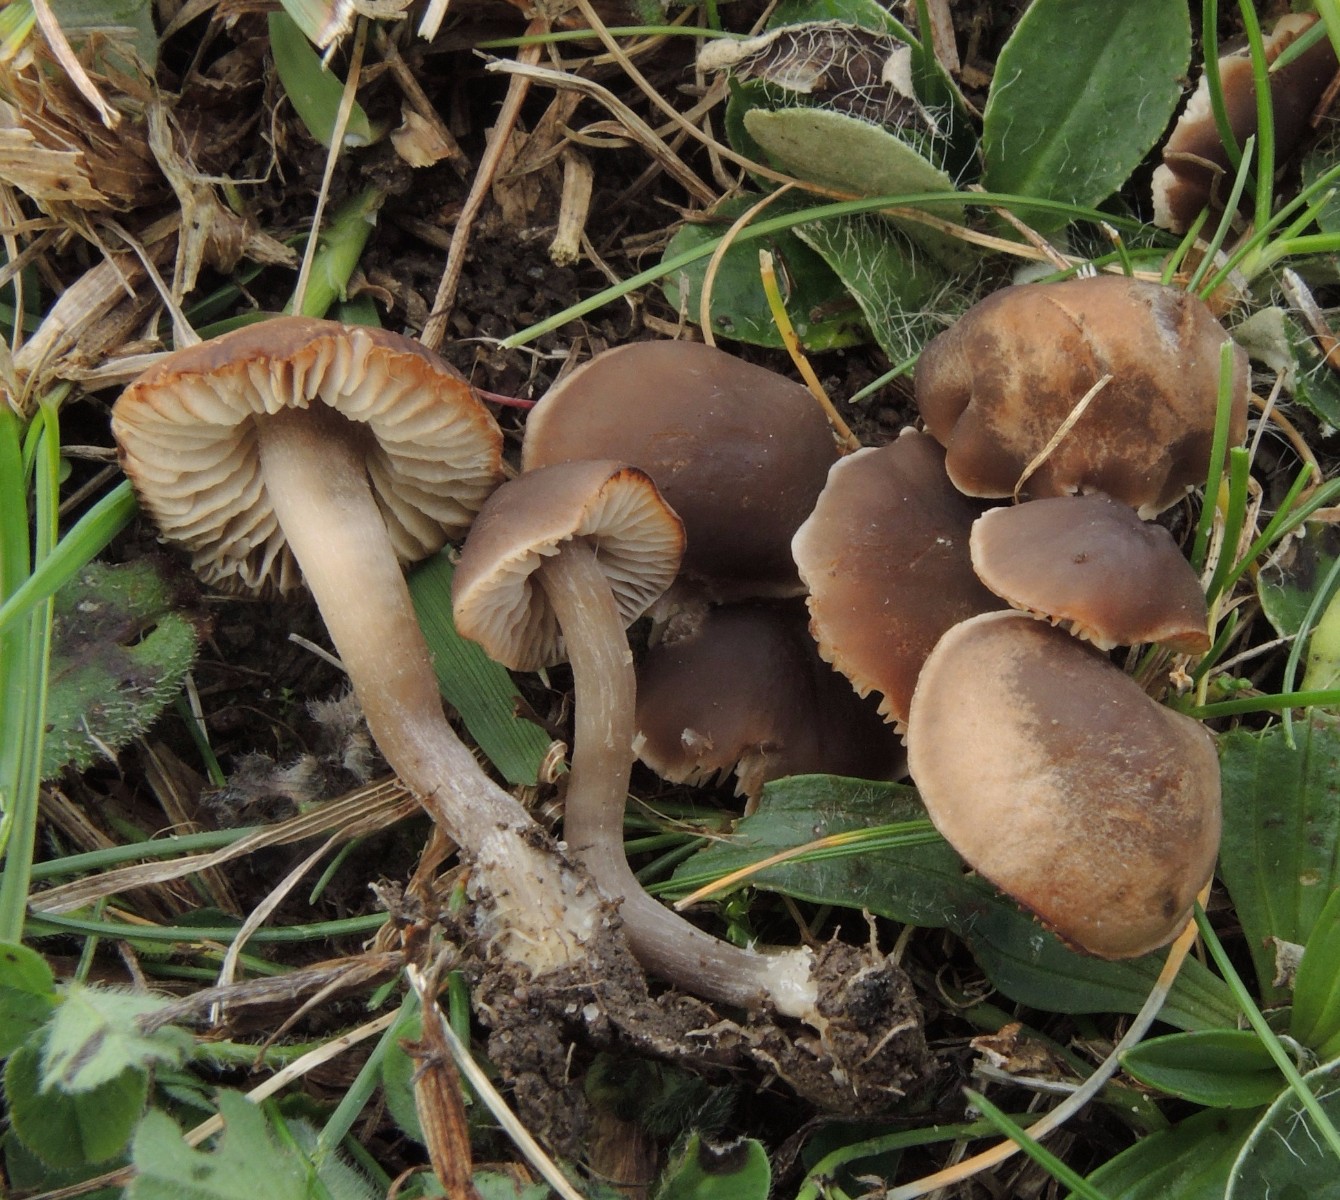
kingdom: Fungi
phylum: Basidiomycota
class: Agaricomycetes
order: Agaricales
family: Tricholomataceae
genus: Dermoloma
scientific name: Dermoloma pseudocuneifolium
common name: mark-nonnehat
